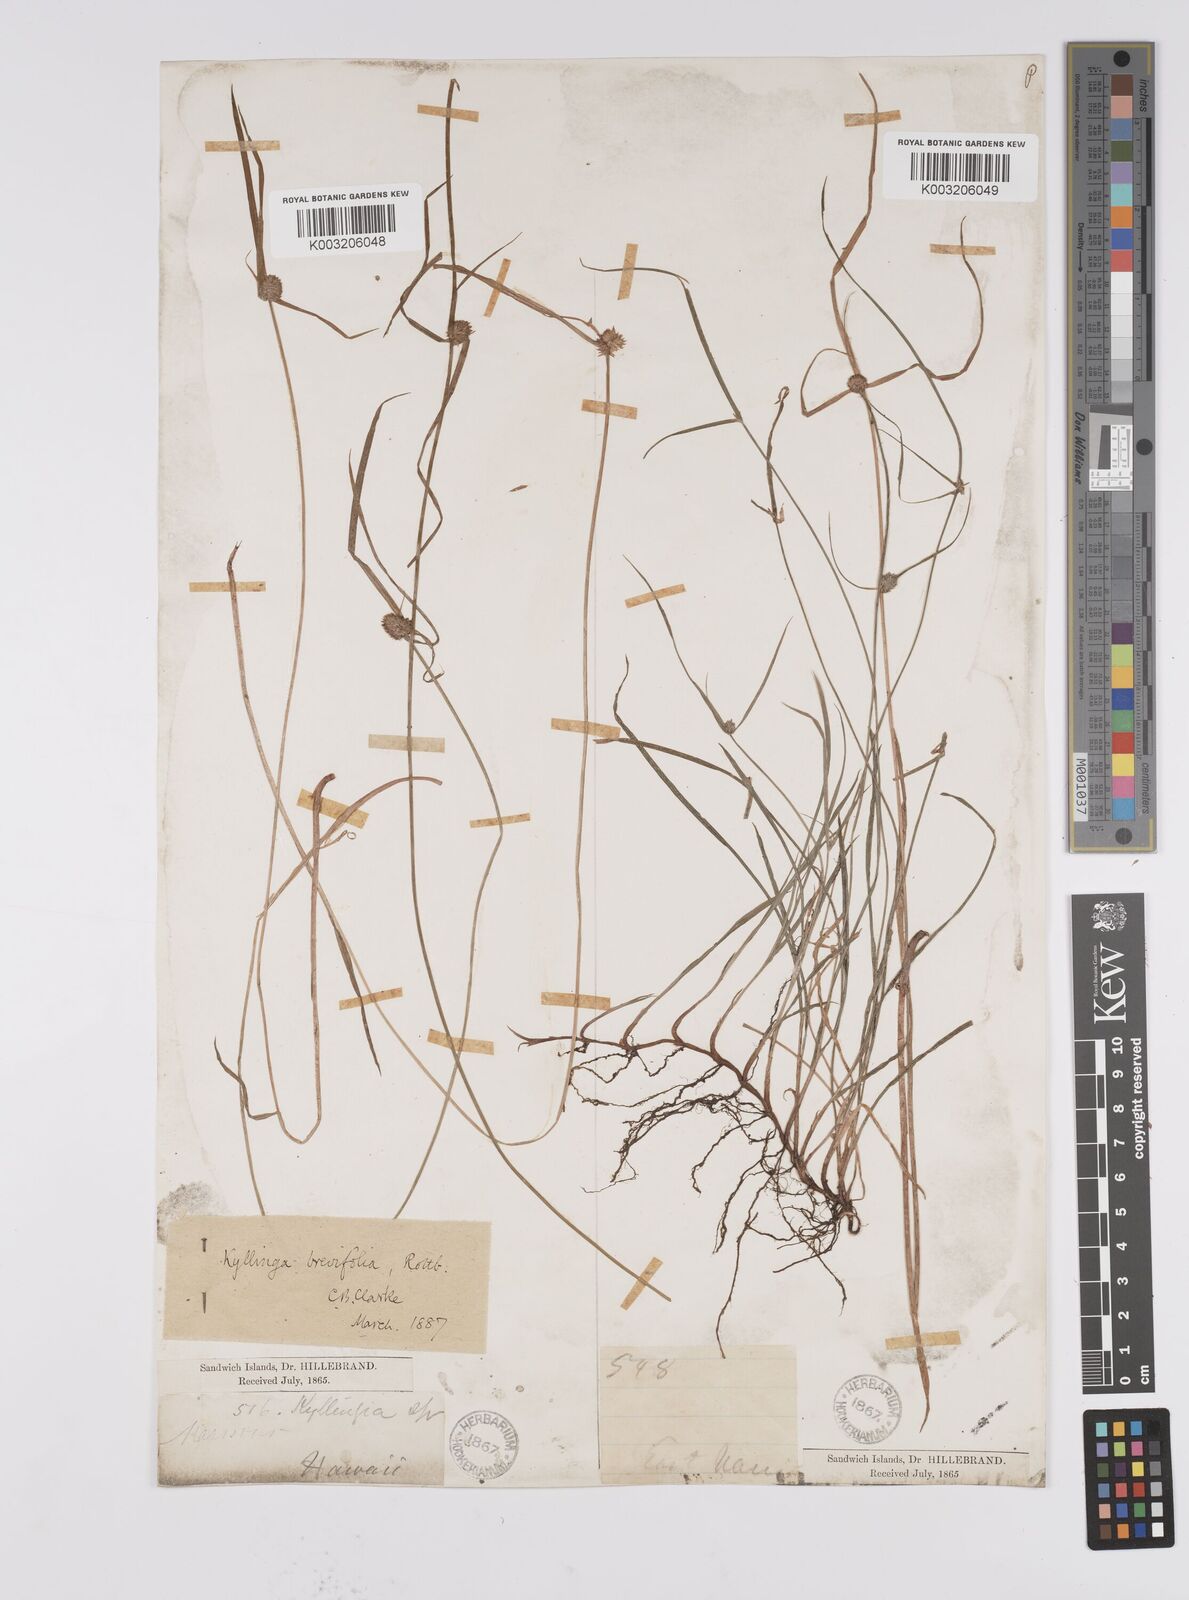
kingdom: Plantae
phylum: Tracheophyta
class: Liliopsida
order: Poales
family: Cyperaceae
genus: Cyperus
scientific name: Cyperus brevifolius
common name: Globe kyllinga
